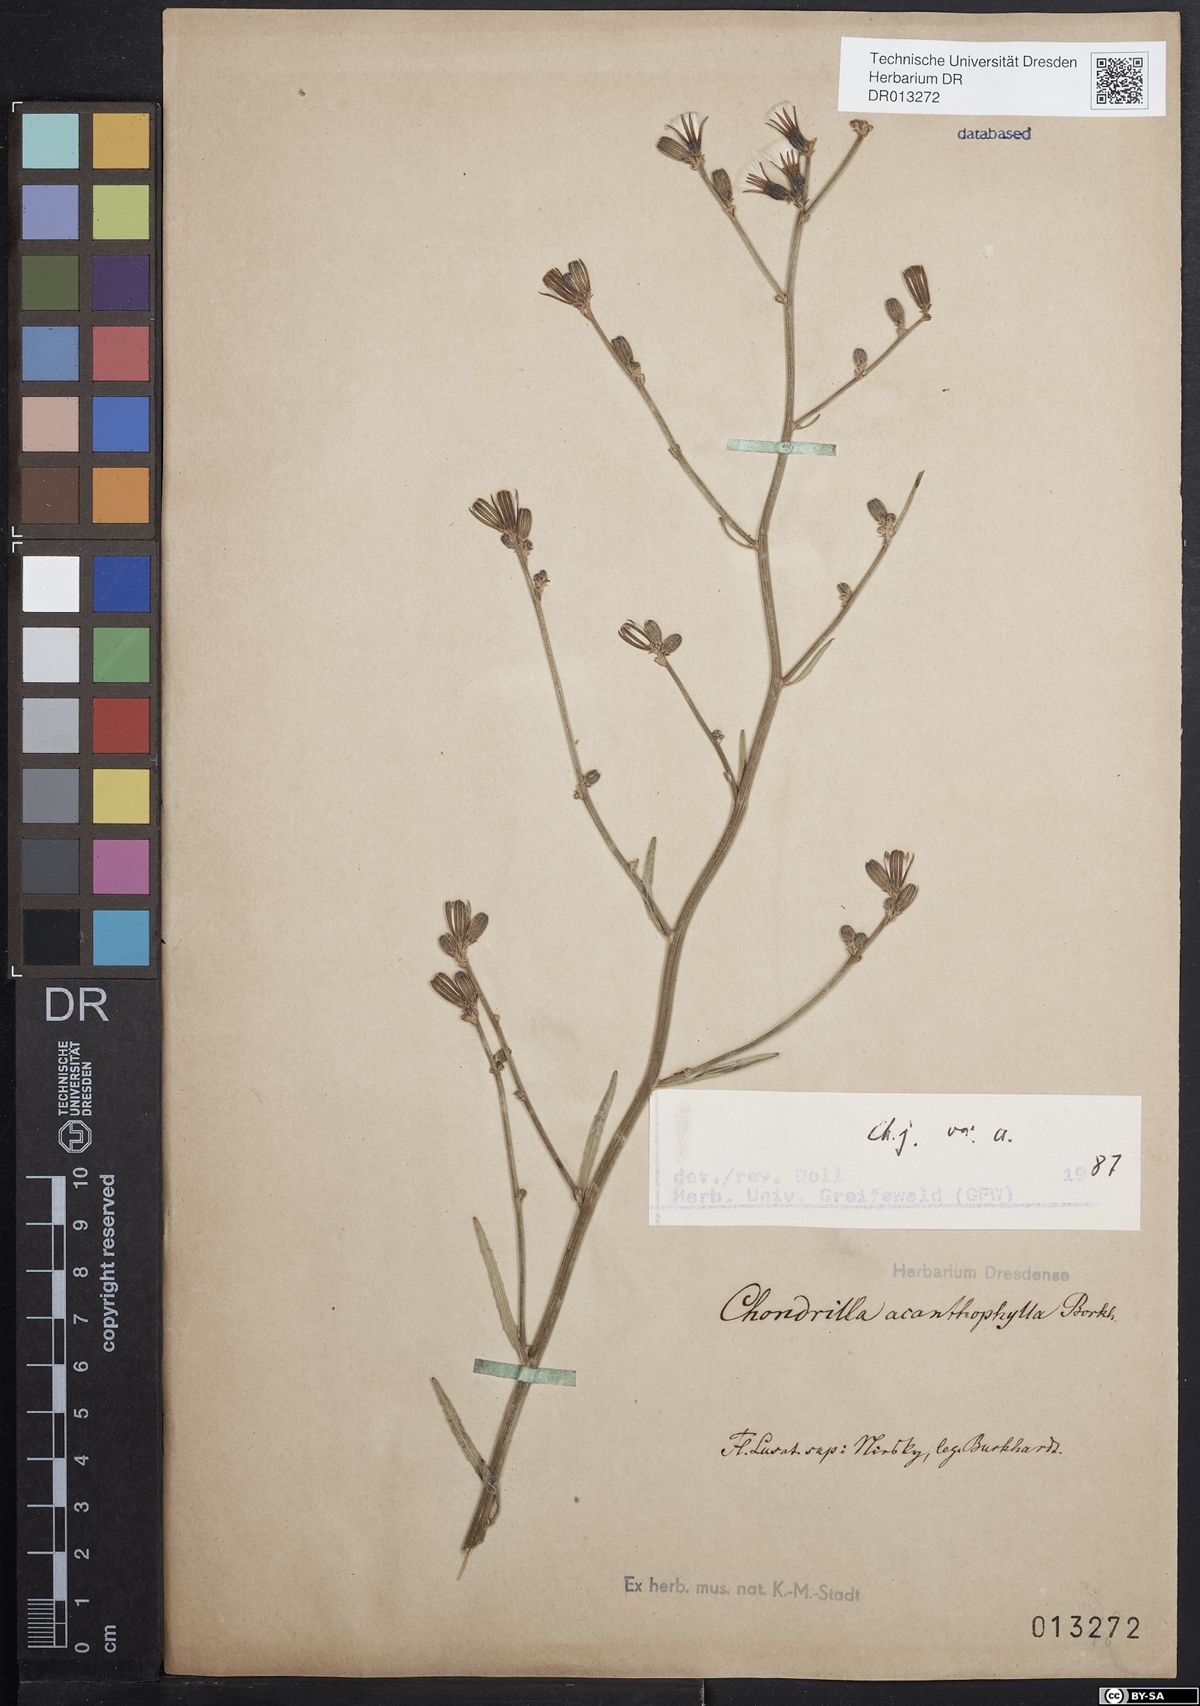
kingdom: Plantae
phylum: Tracheophyta
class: Magnoliopsida
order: Asterales
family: Asteraceae
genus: Chondrilla
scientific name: Chondrilla juncea
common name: Skeleton weed
